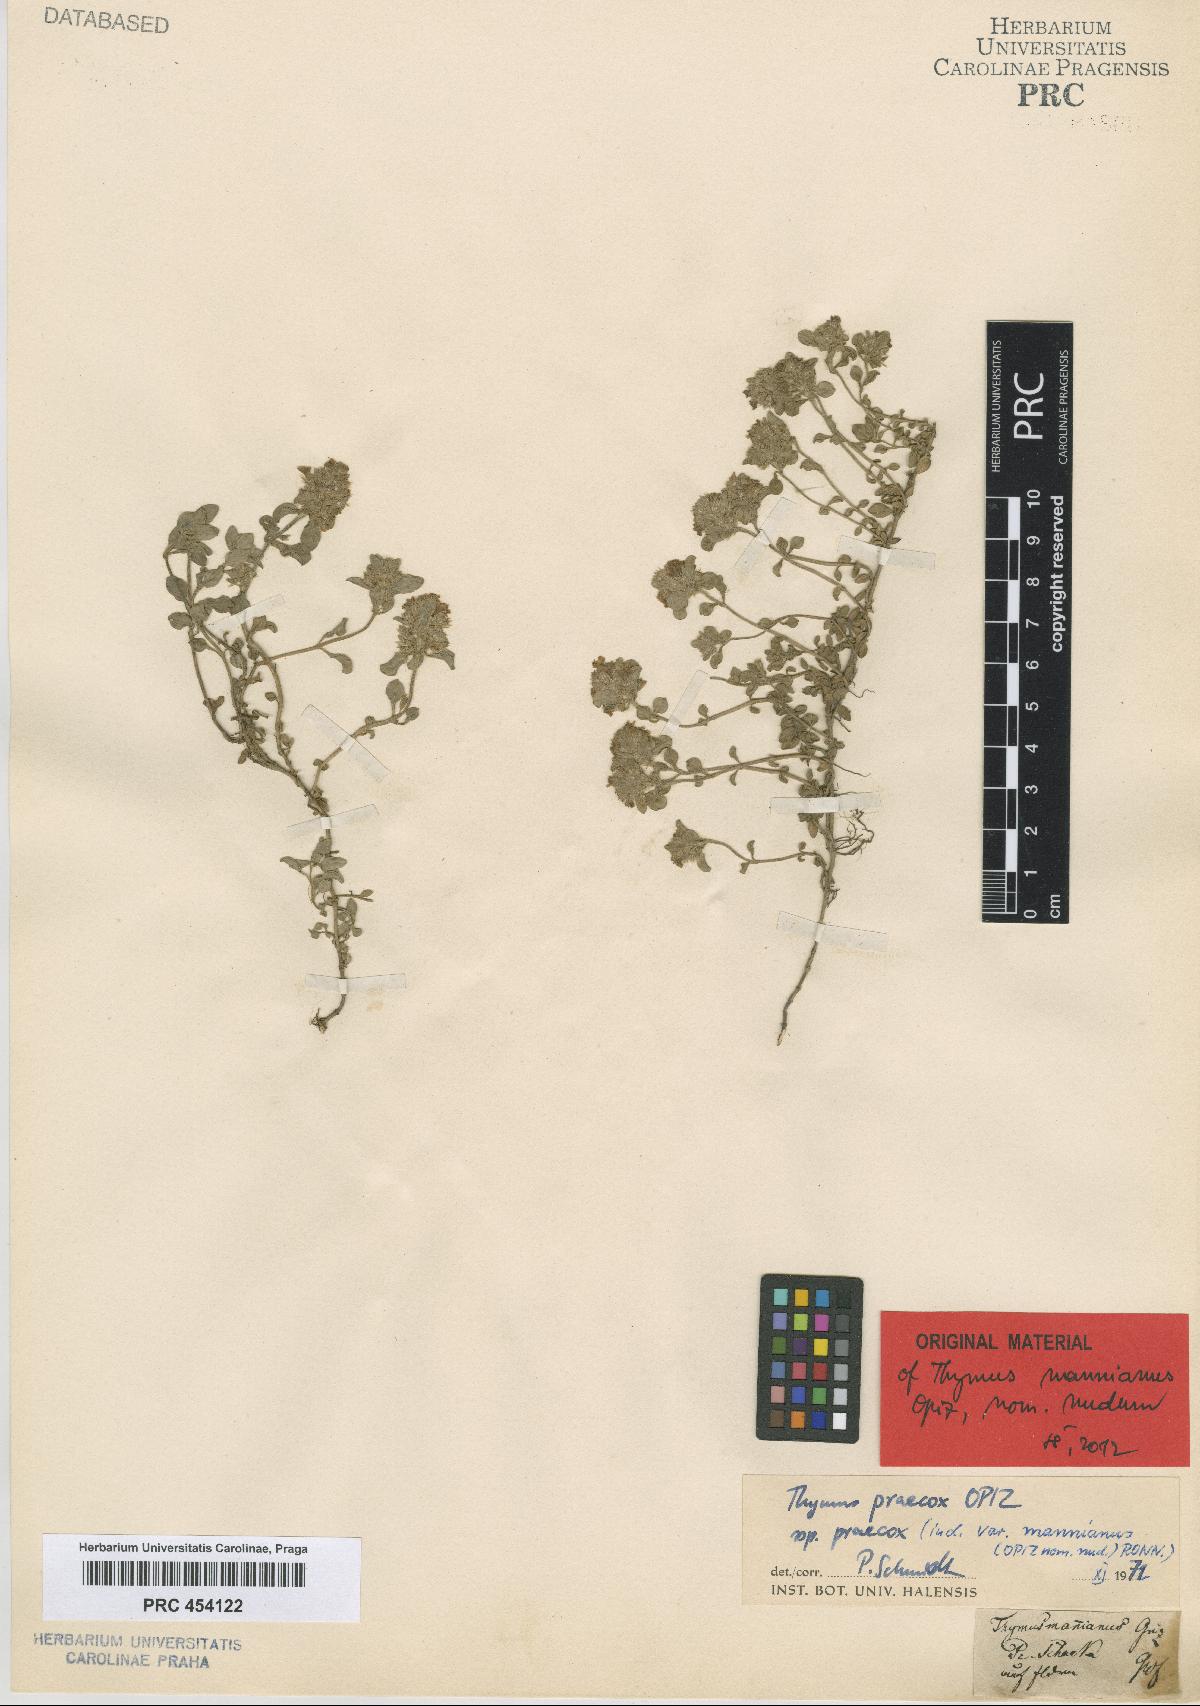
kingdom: Plantae
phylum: Tracheophyta
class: Magnoliopsida
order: Lamiales
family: Lamiaceae
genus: Thymus
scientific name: Thymus praecox
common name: Wild thyme
